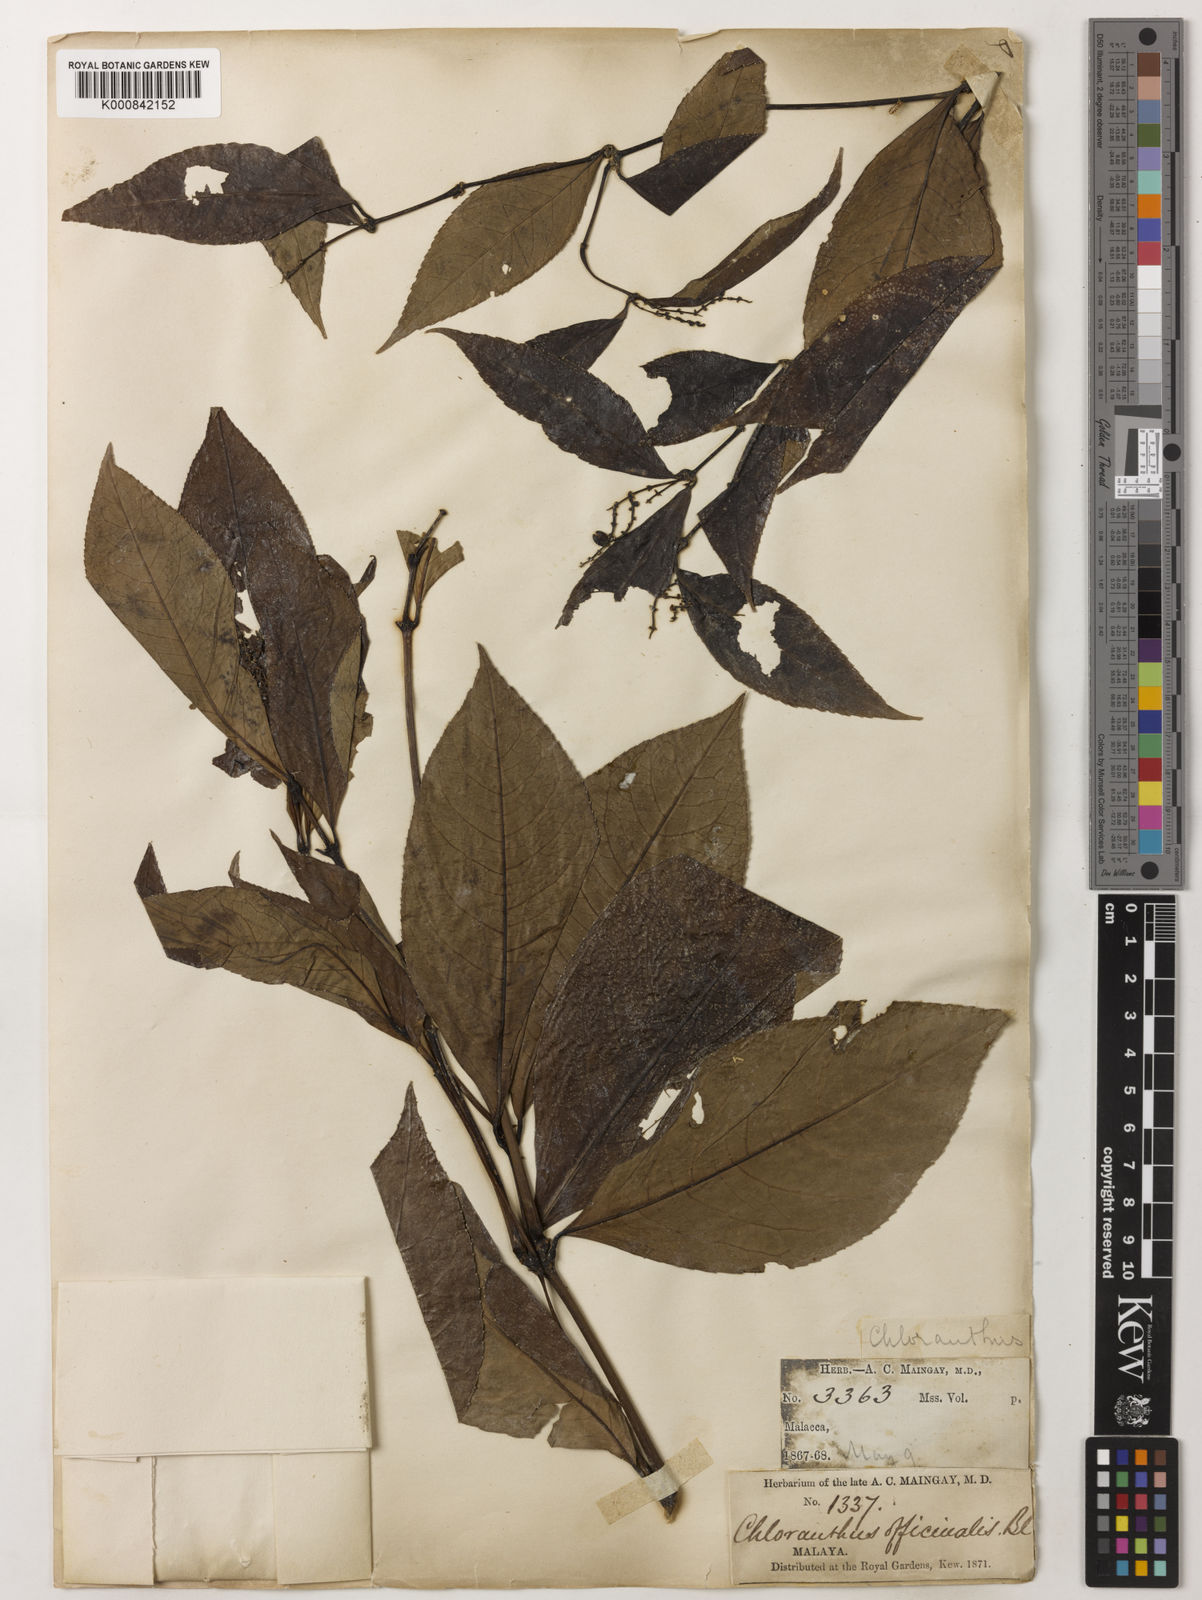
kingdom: Plantae
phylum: Tracheophyta
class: Magnoliopsida
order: Chloranthales
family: Chloranthaceae
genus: Chloranthus
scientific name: Chloranthus
